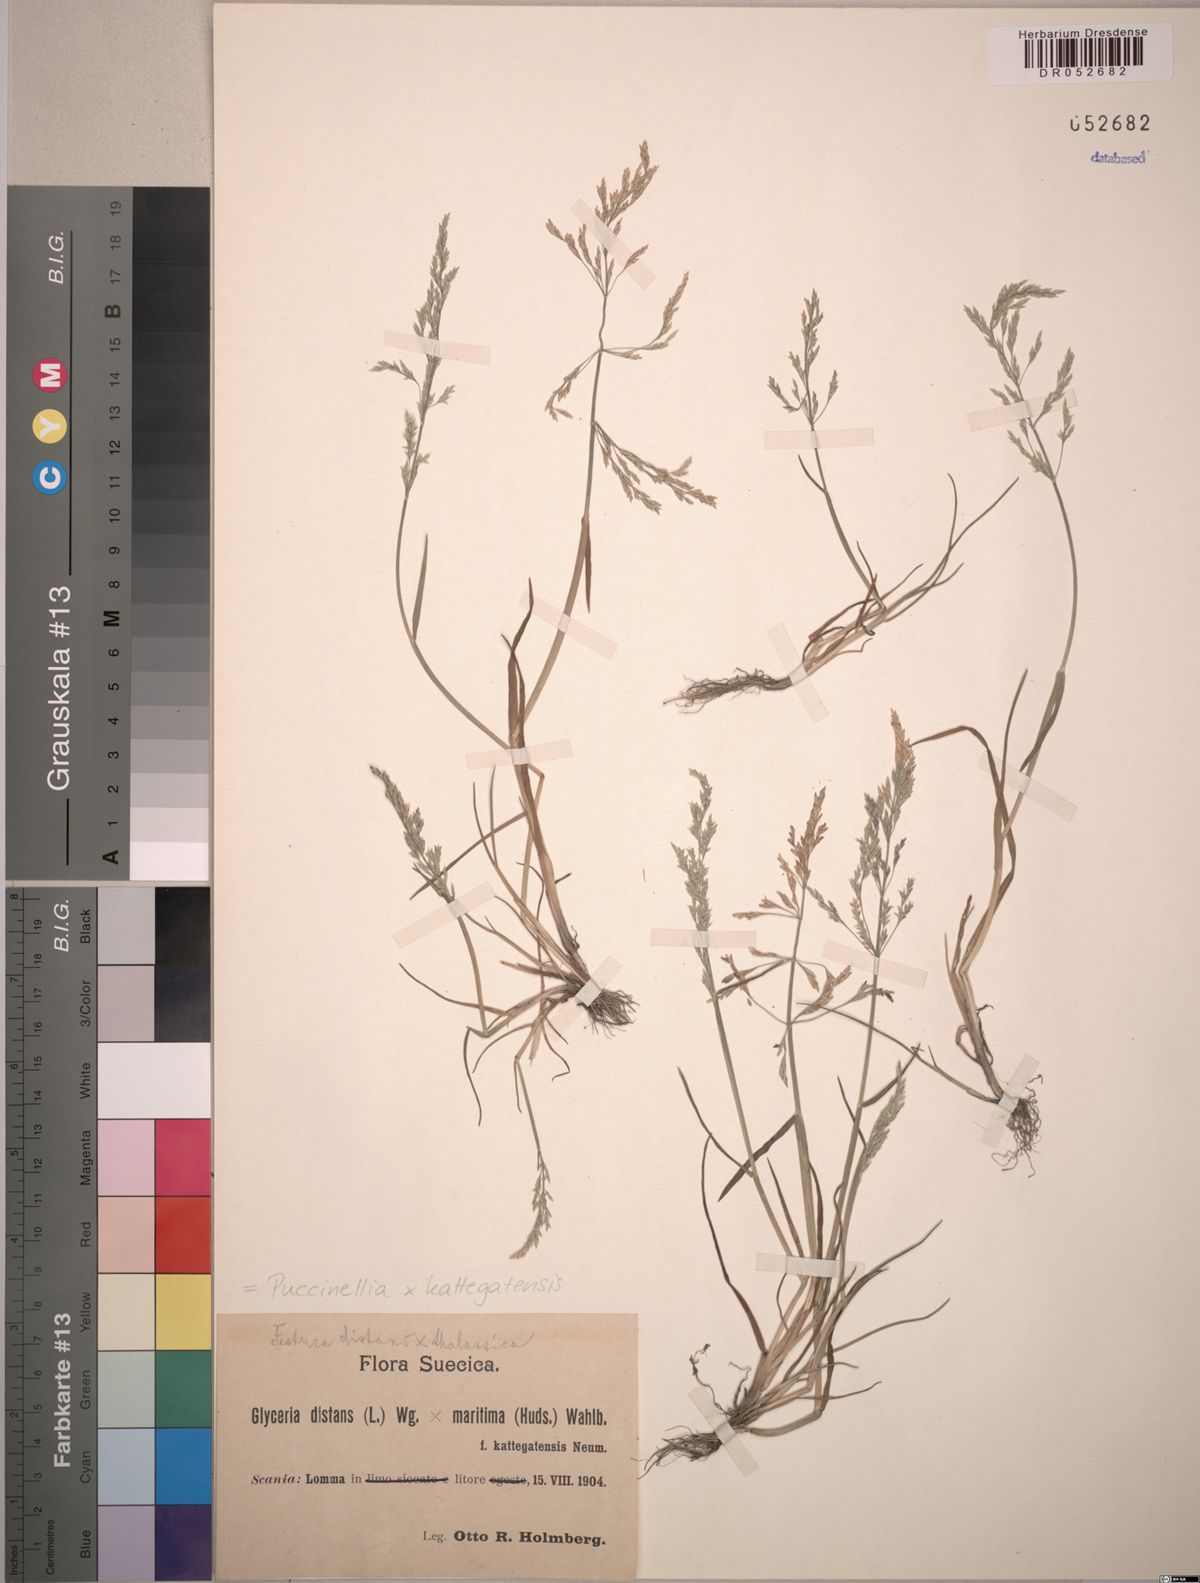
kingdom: Plantae
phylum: Tracheophyta
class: Liliopsida
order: Poales
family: Poaceae
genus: Puccinellia
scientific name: Puccinellia kattegatensis
